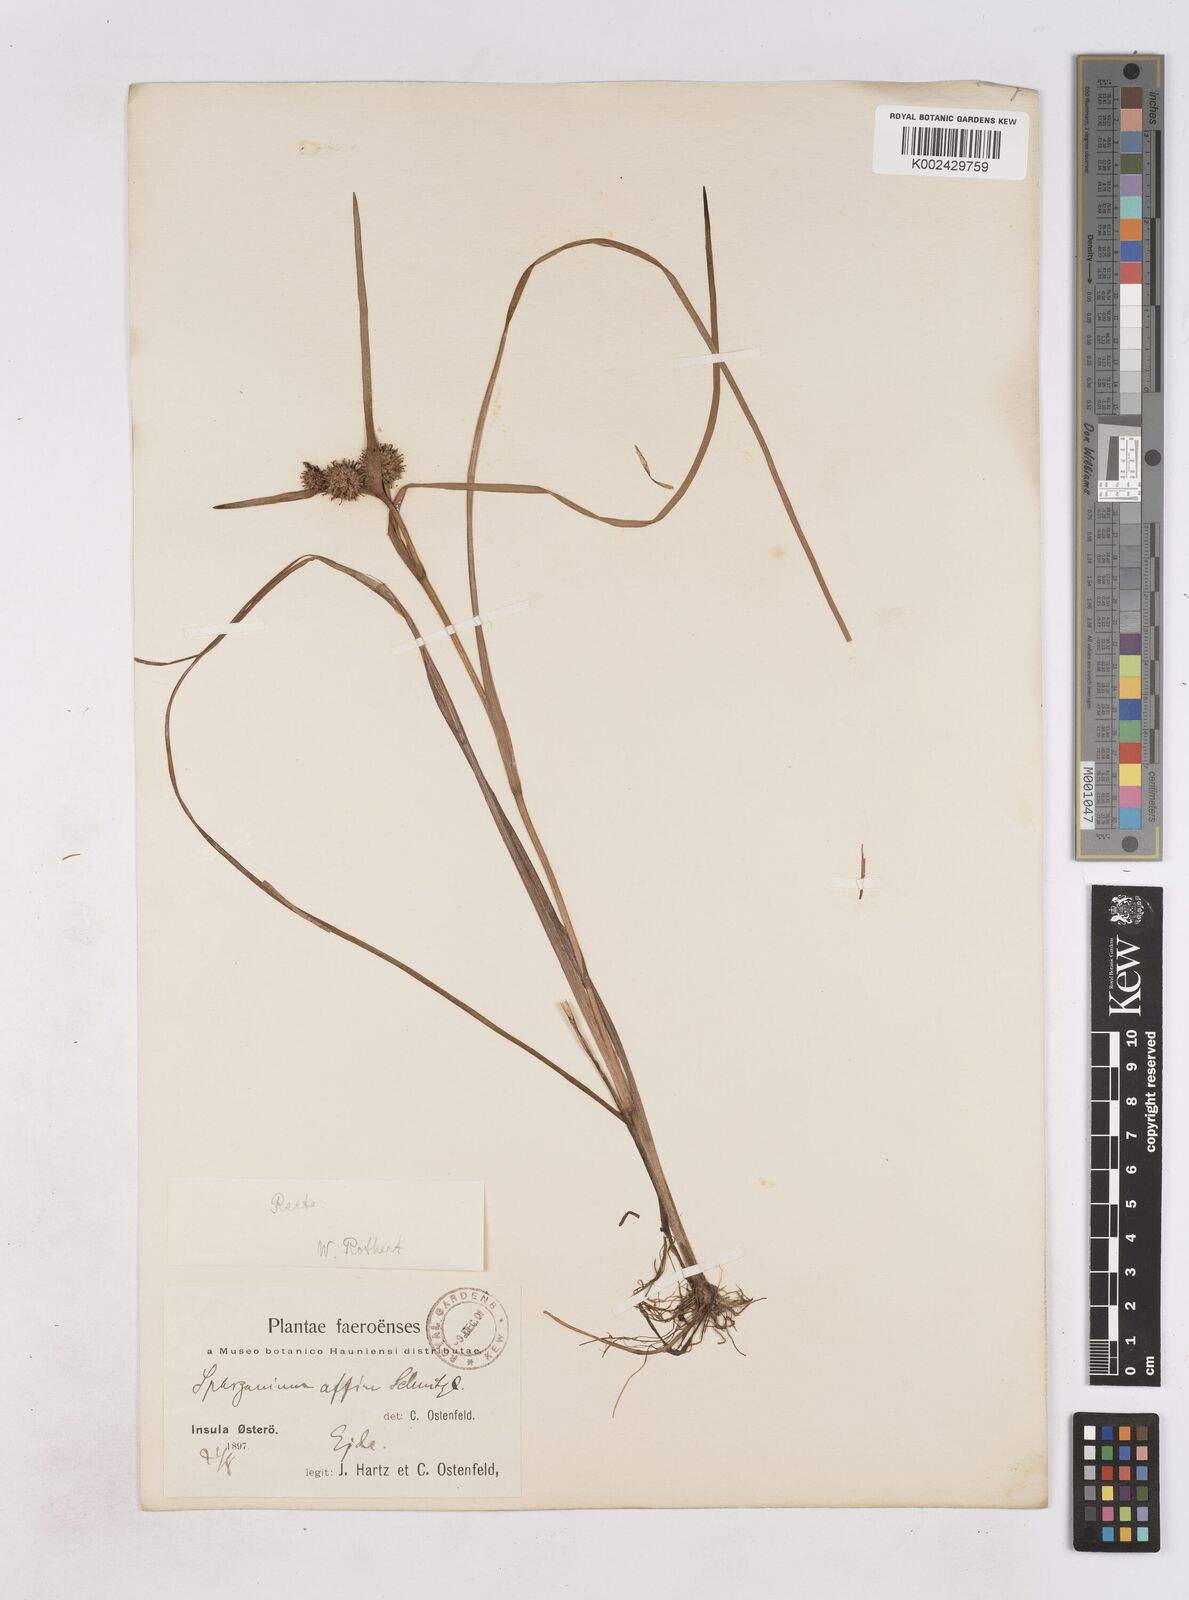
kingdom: Plantae
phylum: Tracheophyta
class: Liliopsida
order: Poales
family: Typhaceae
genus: Sparganium
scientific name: Sparganium angustifolium
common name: Floating bur-reed
